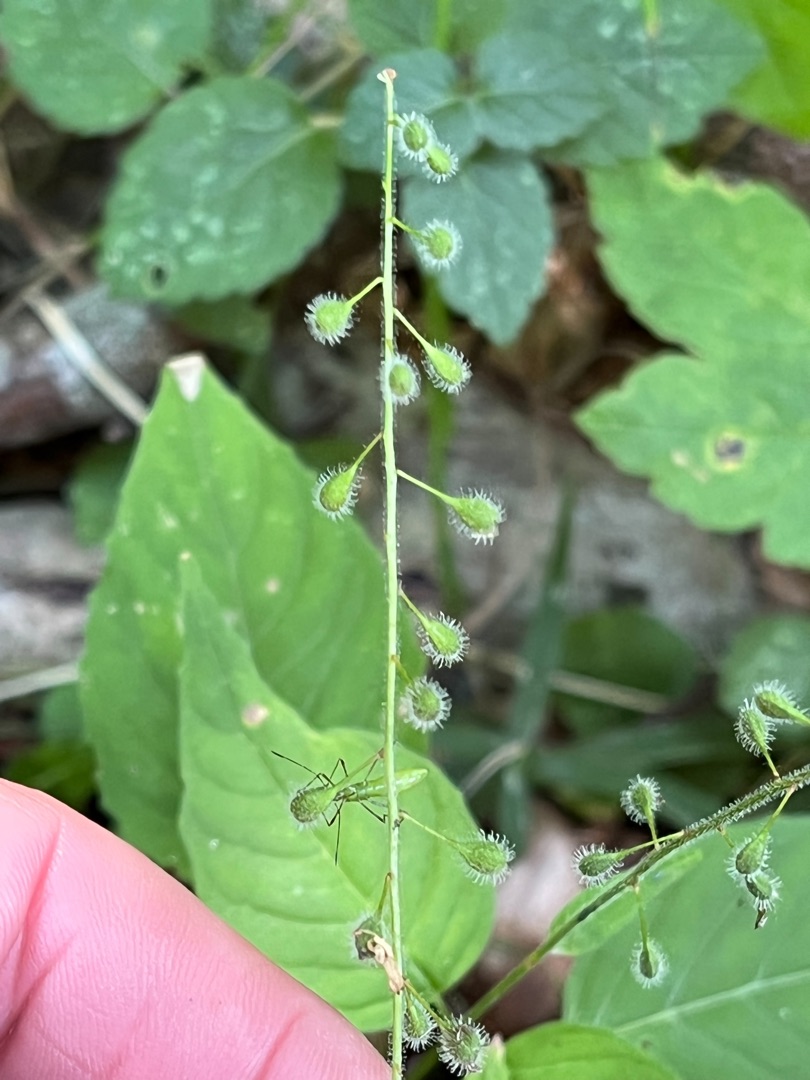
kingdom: Plantae
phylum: Tracheophyta
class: Magnoliopsida
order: Myrtales
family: Onagraceae
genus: Circaea
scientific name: Circaea lutetiana
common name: Dunet steffensurt
